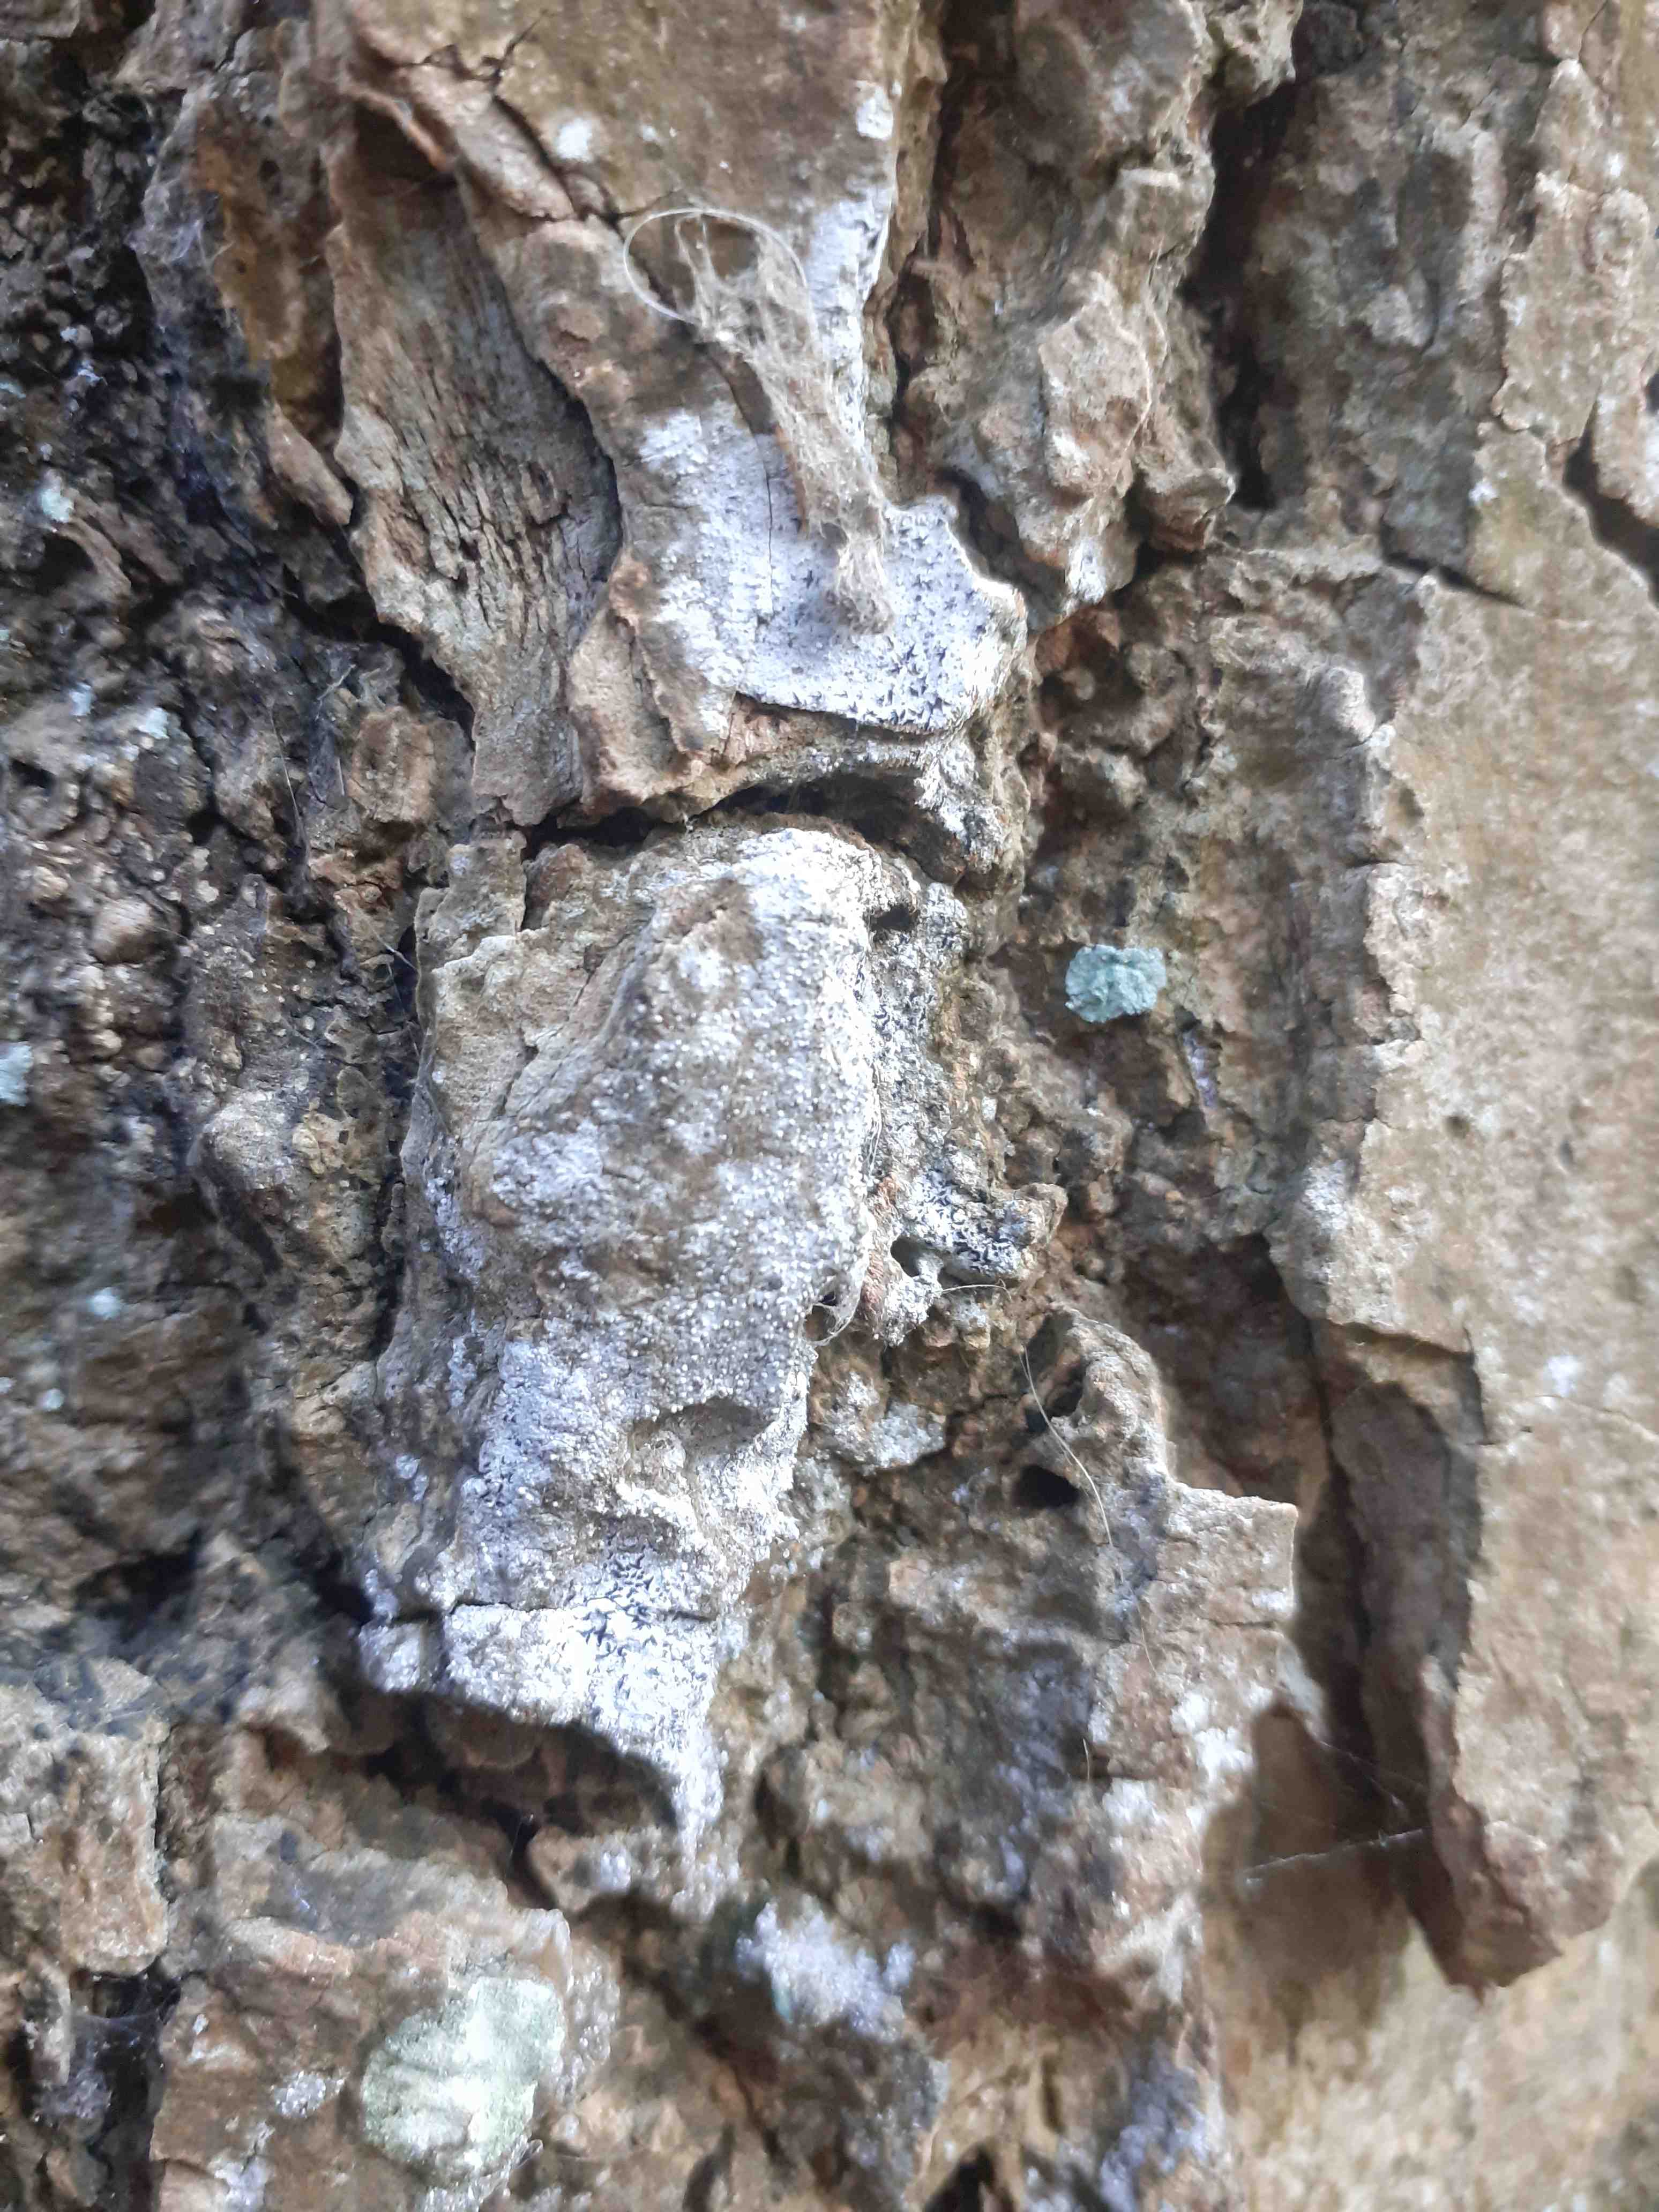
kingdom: Fungi
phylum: Ascomycota
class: Arthoniomycetes
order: Arthoniales
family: Opegraphaceae
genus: Opegrapha
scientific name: Opegrapha vermicellifera
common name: nåleprikket bogstavlav
